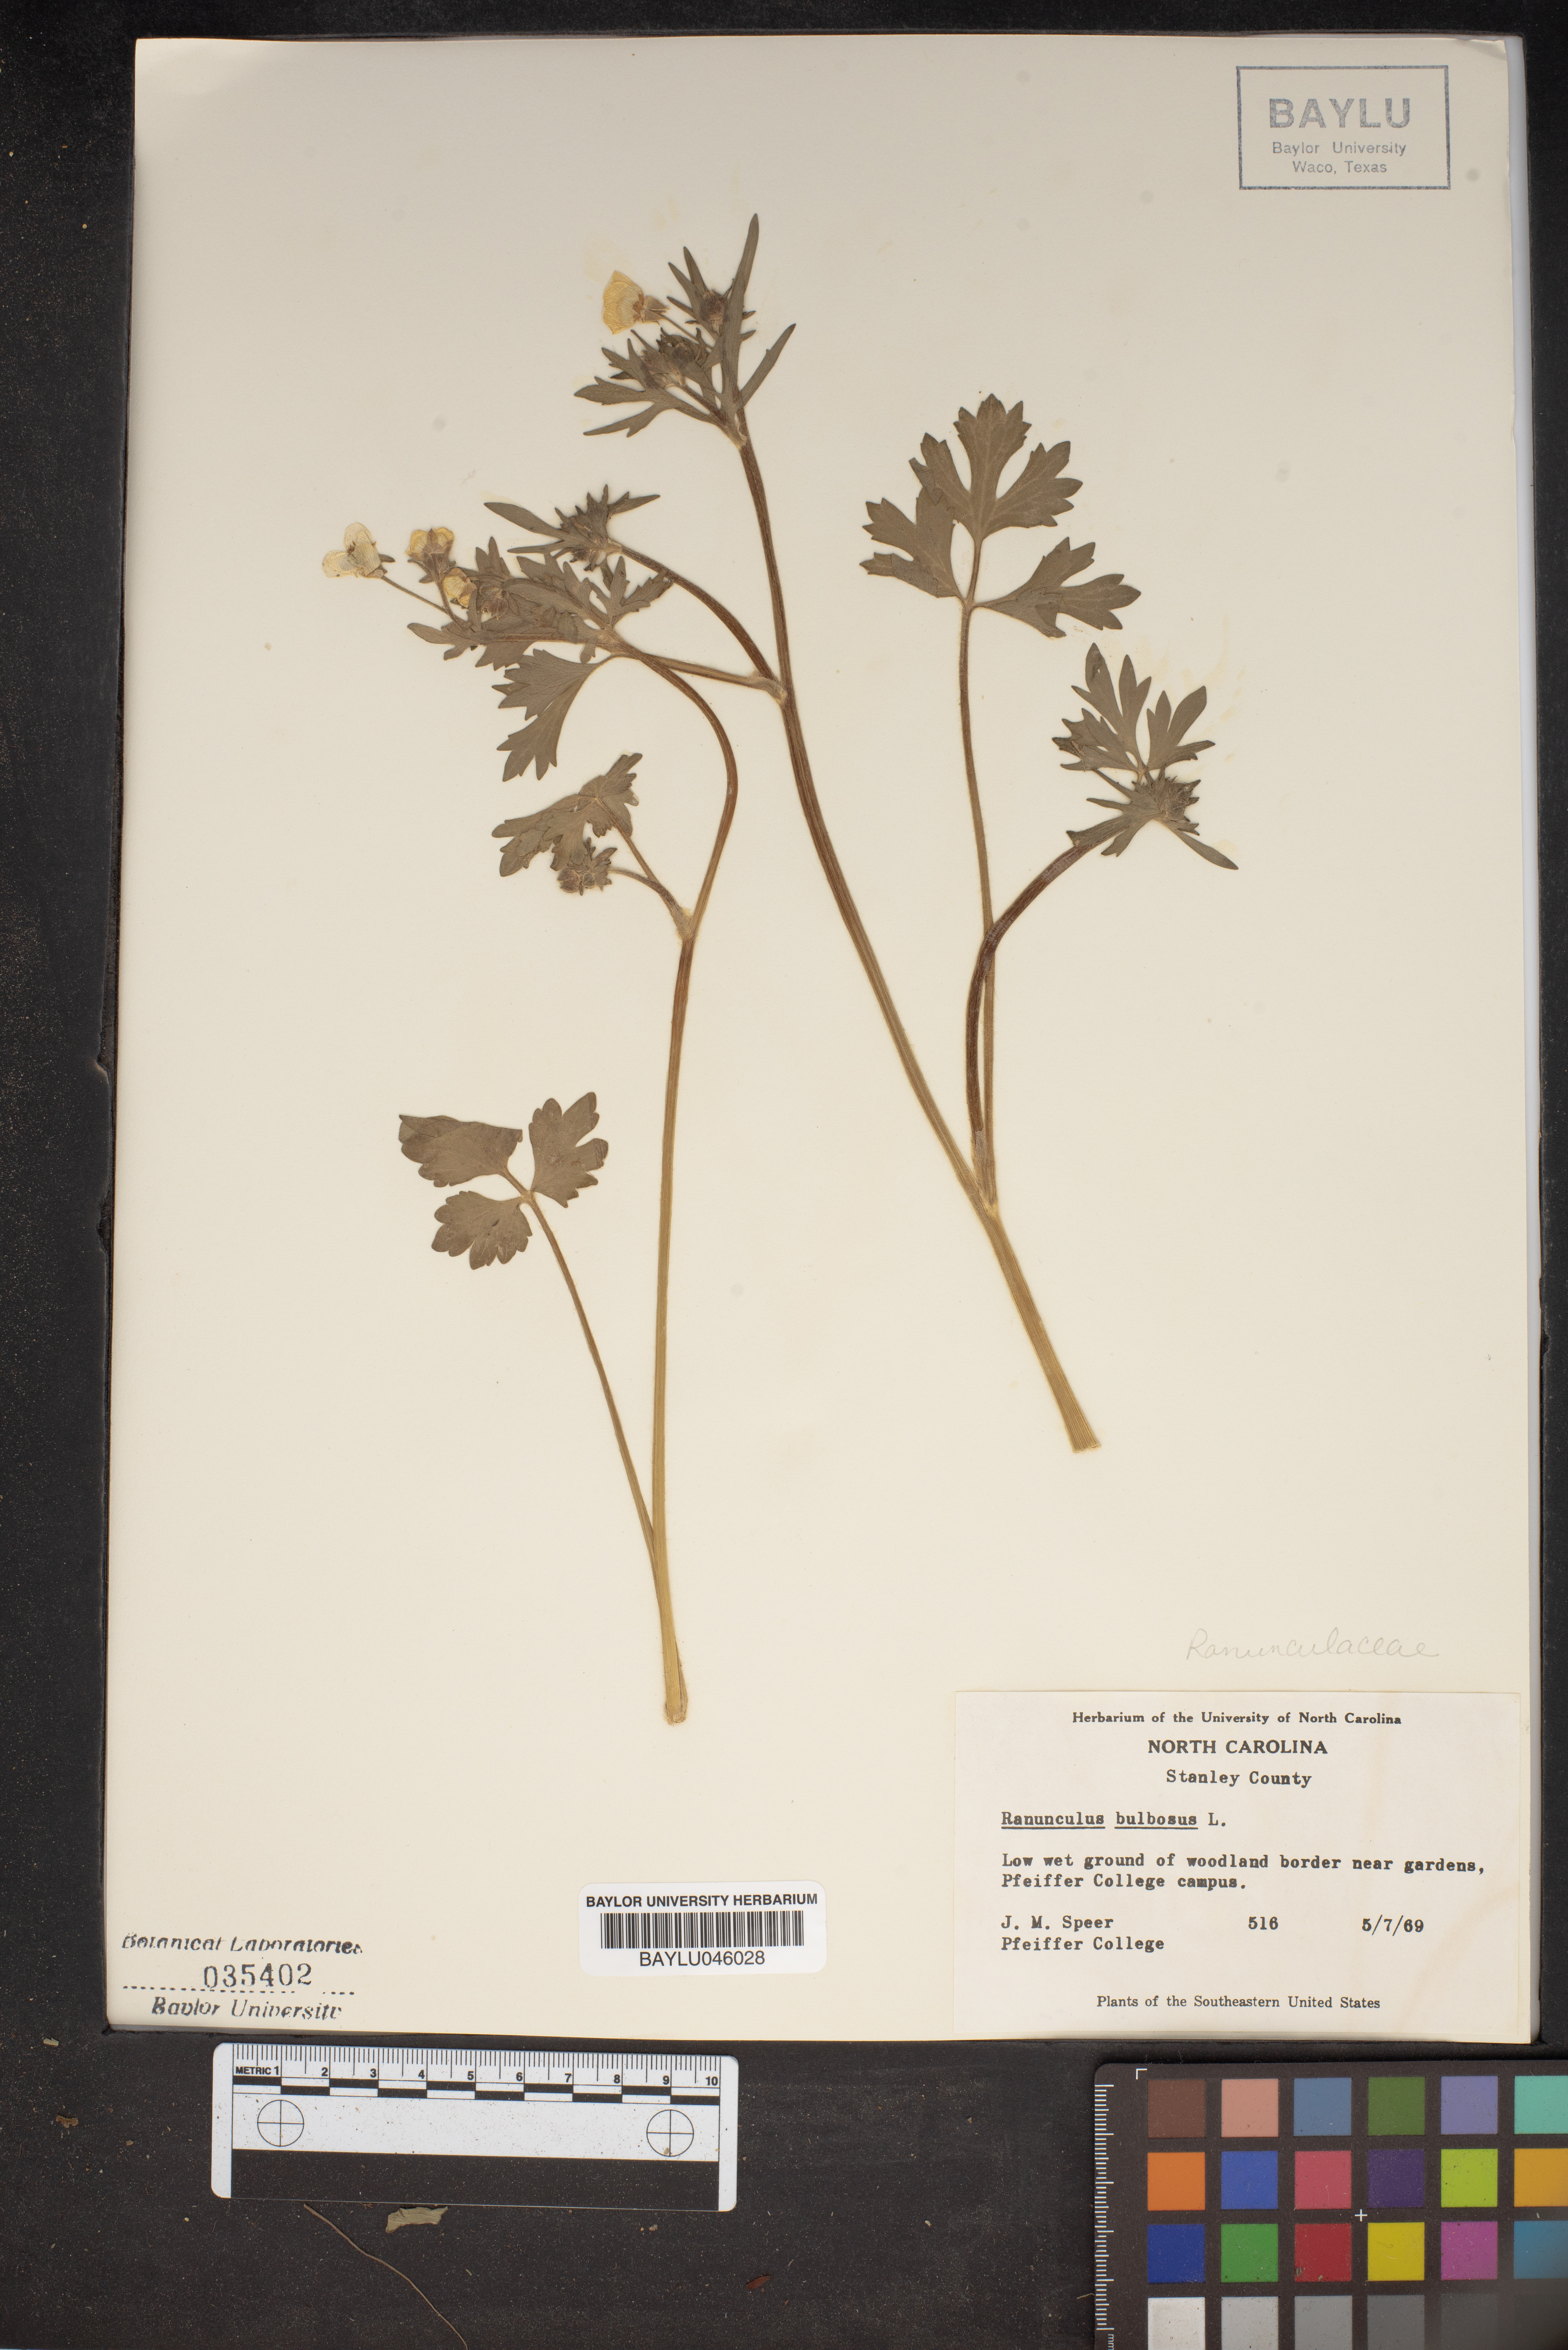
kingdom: Plantae
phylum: Tracheophyta
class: Magnoliopsida
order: Ranunculales
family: Ranunculaceae
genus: Ranunculus
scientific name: Ranunculus bulbosus
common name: Bulbous buttercup
